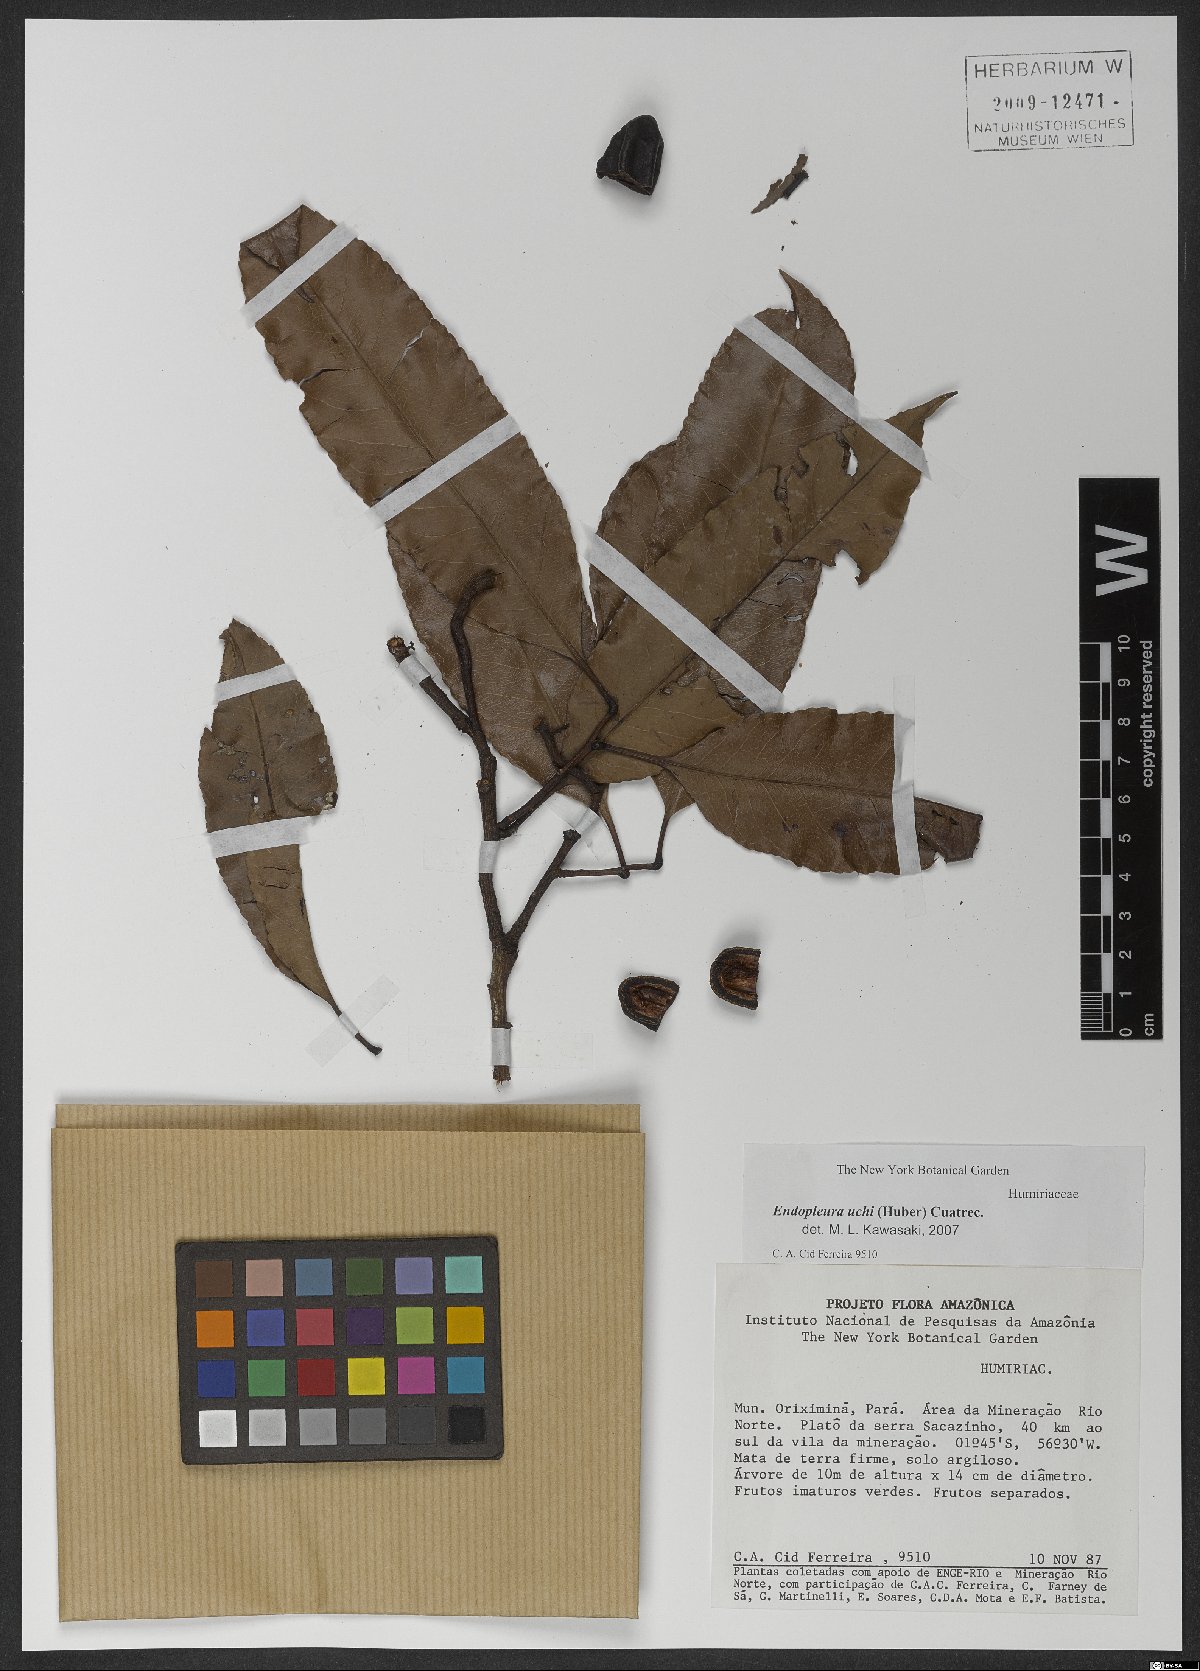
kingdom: Plantae
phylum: Tracheophyta
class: Magnoliopsida
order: Malpighiales
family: Humiriaceae
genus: Endopleura
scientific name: Endopleura uchi
